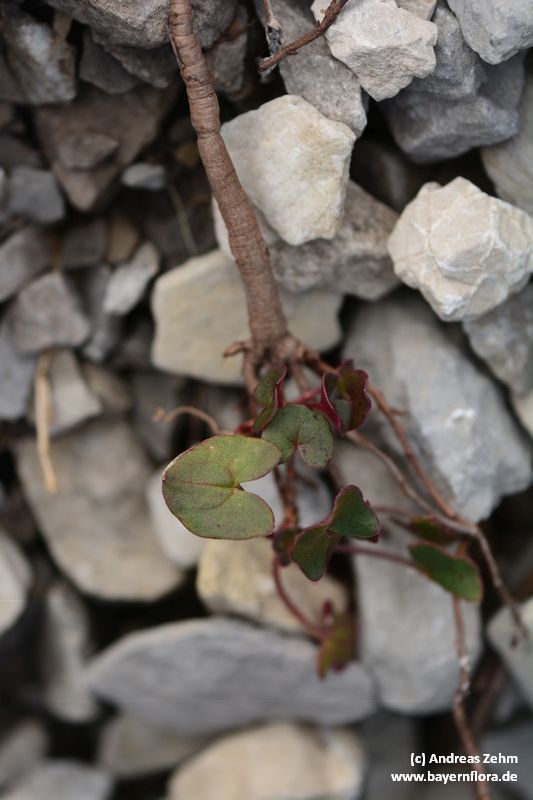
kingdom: Plantae
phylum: Tracheophyta
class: Magnoliopsida
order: Caryophyllales
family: Polygonaceae
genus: Rumex
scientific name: Rumex scutatus
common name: French sorrel
